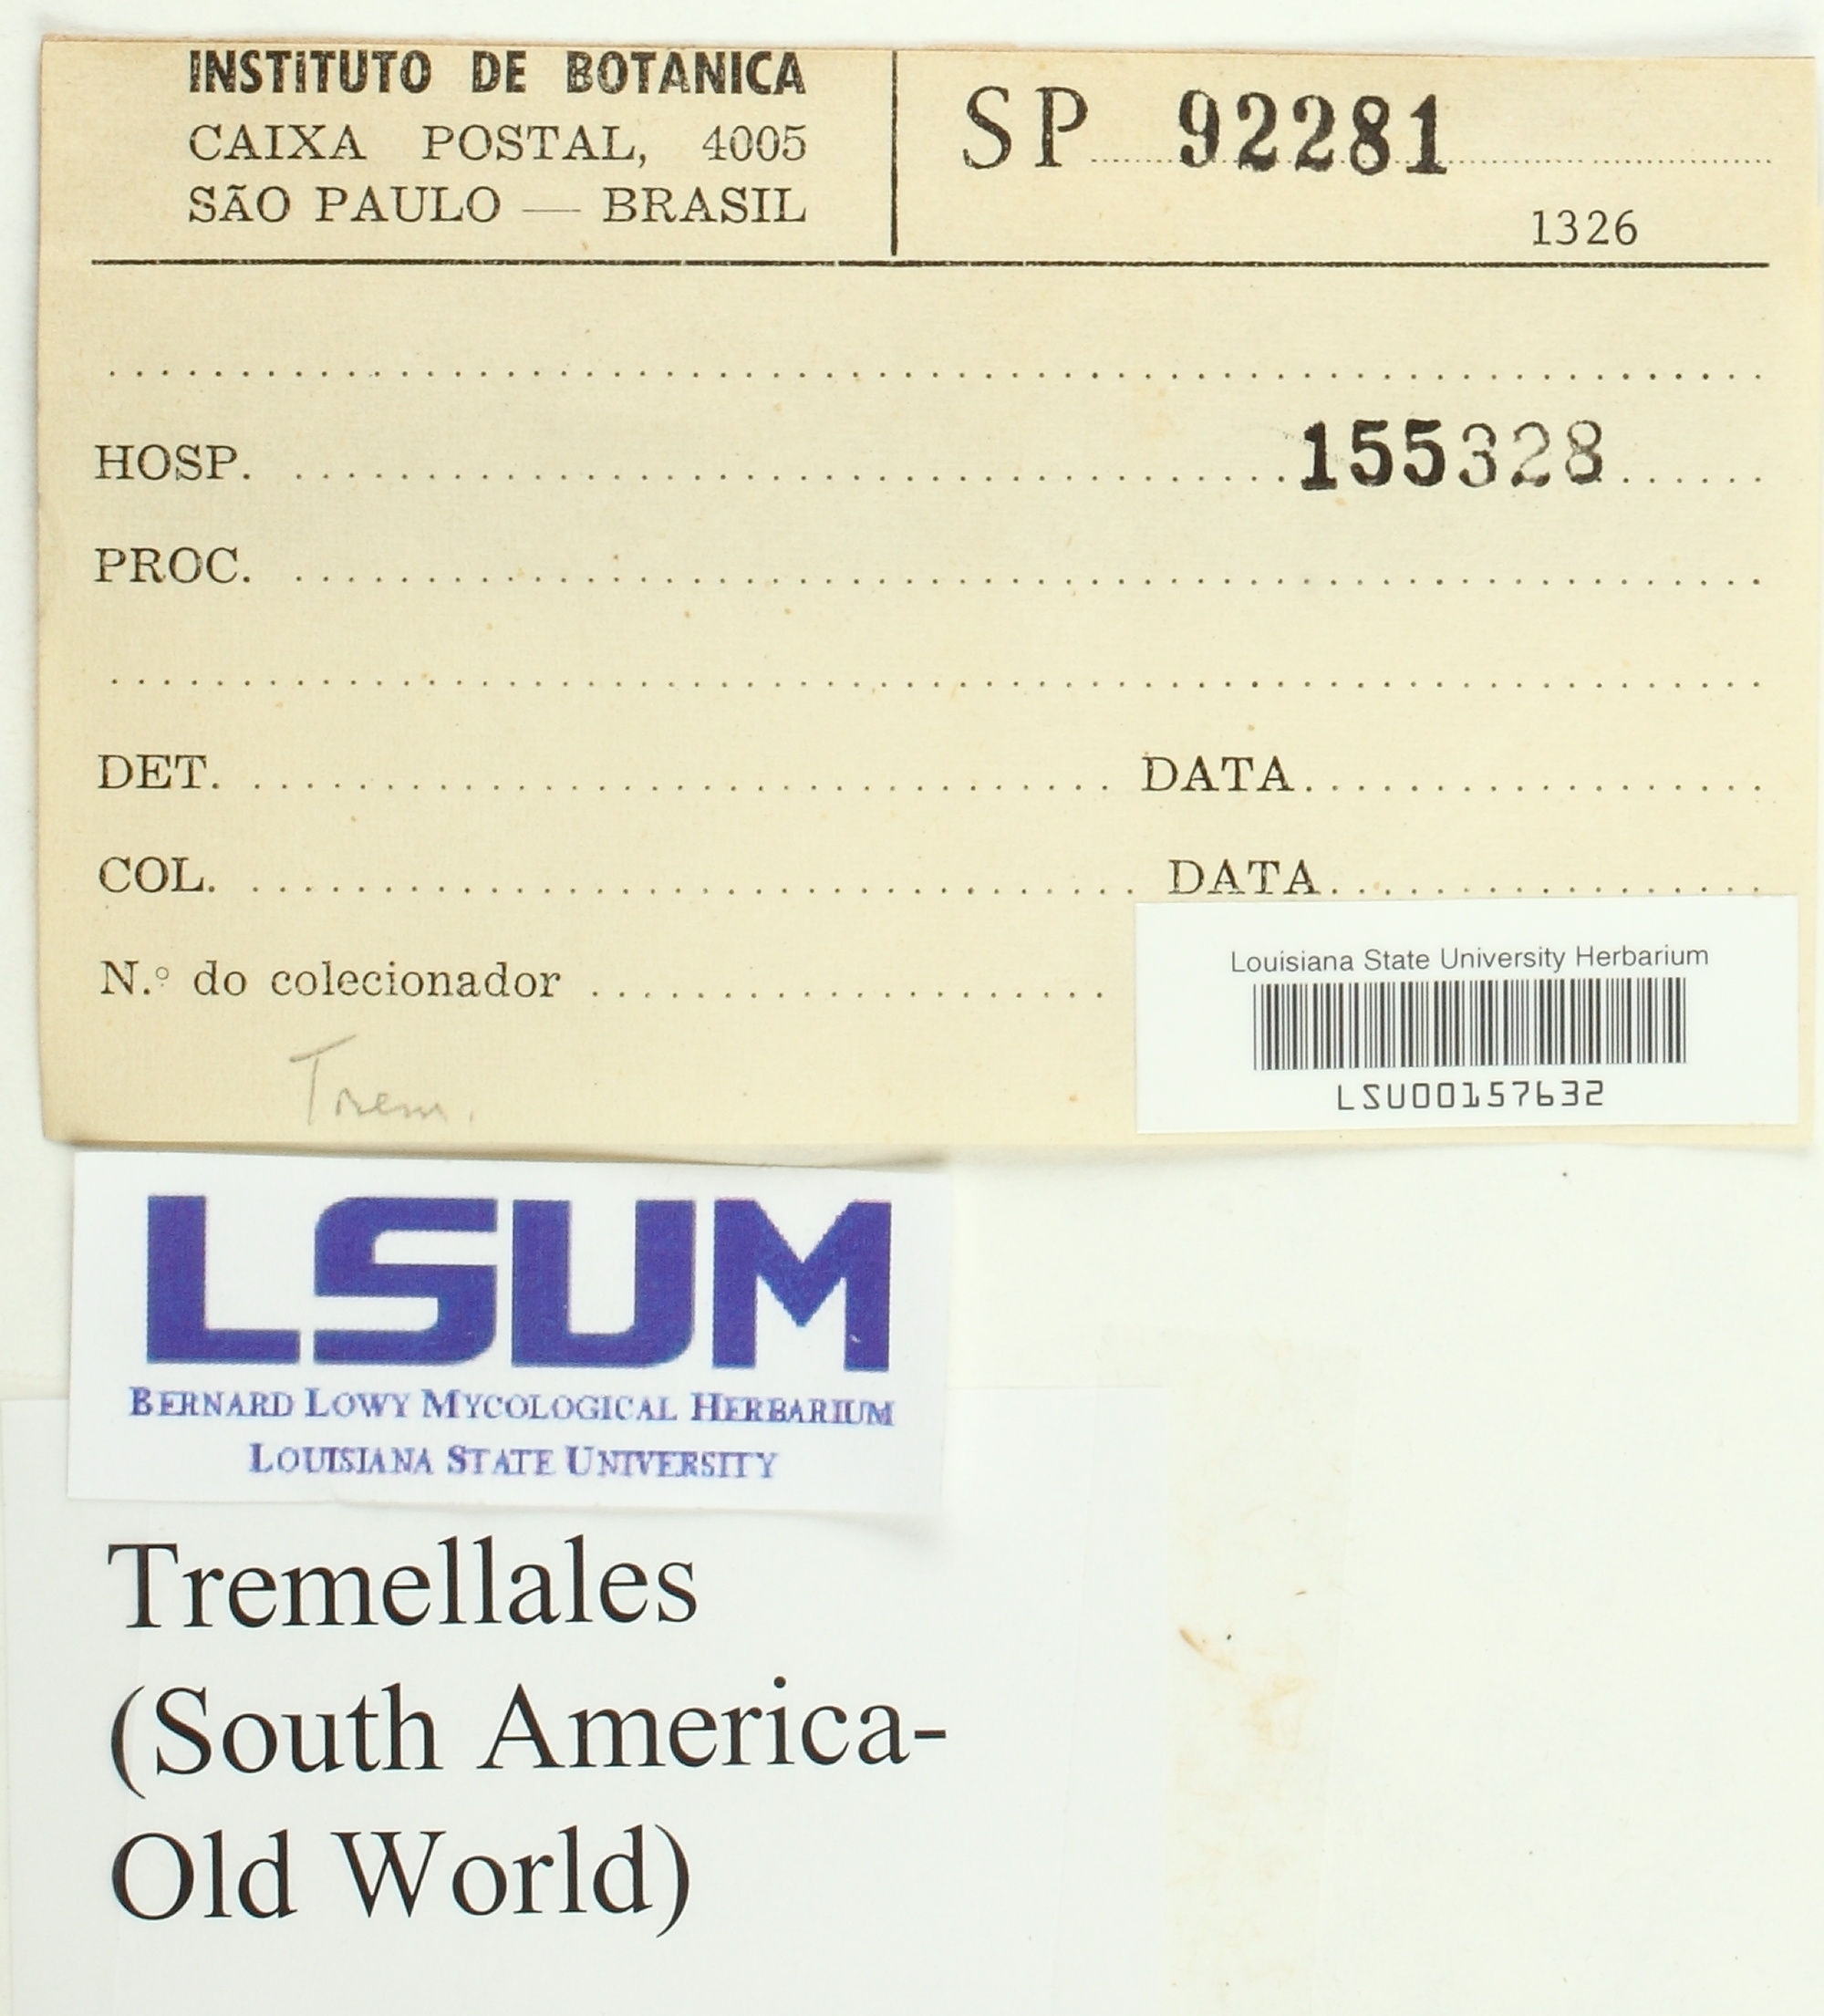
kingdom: Fungi
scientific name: Fungi
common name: Fungi
